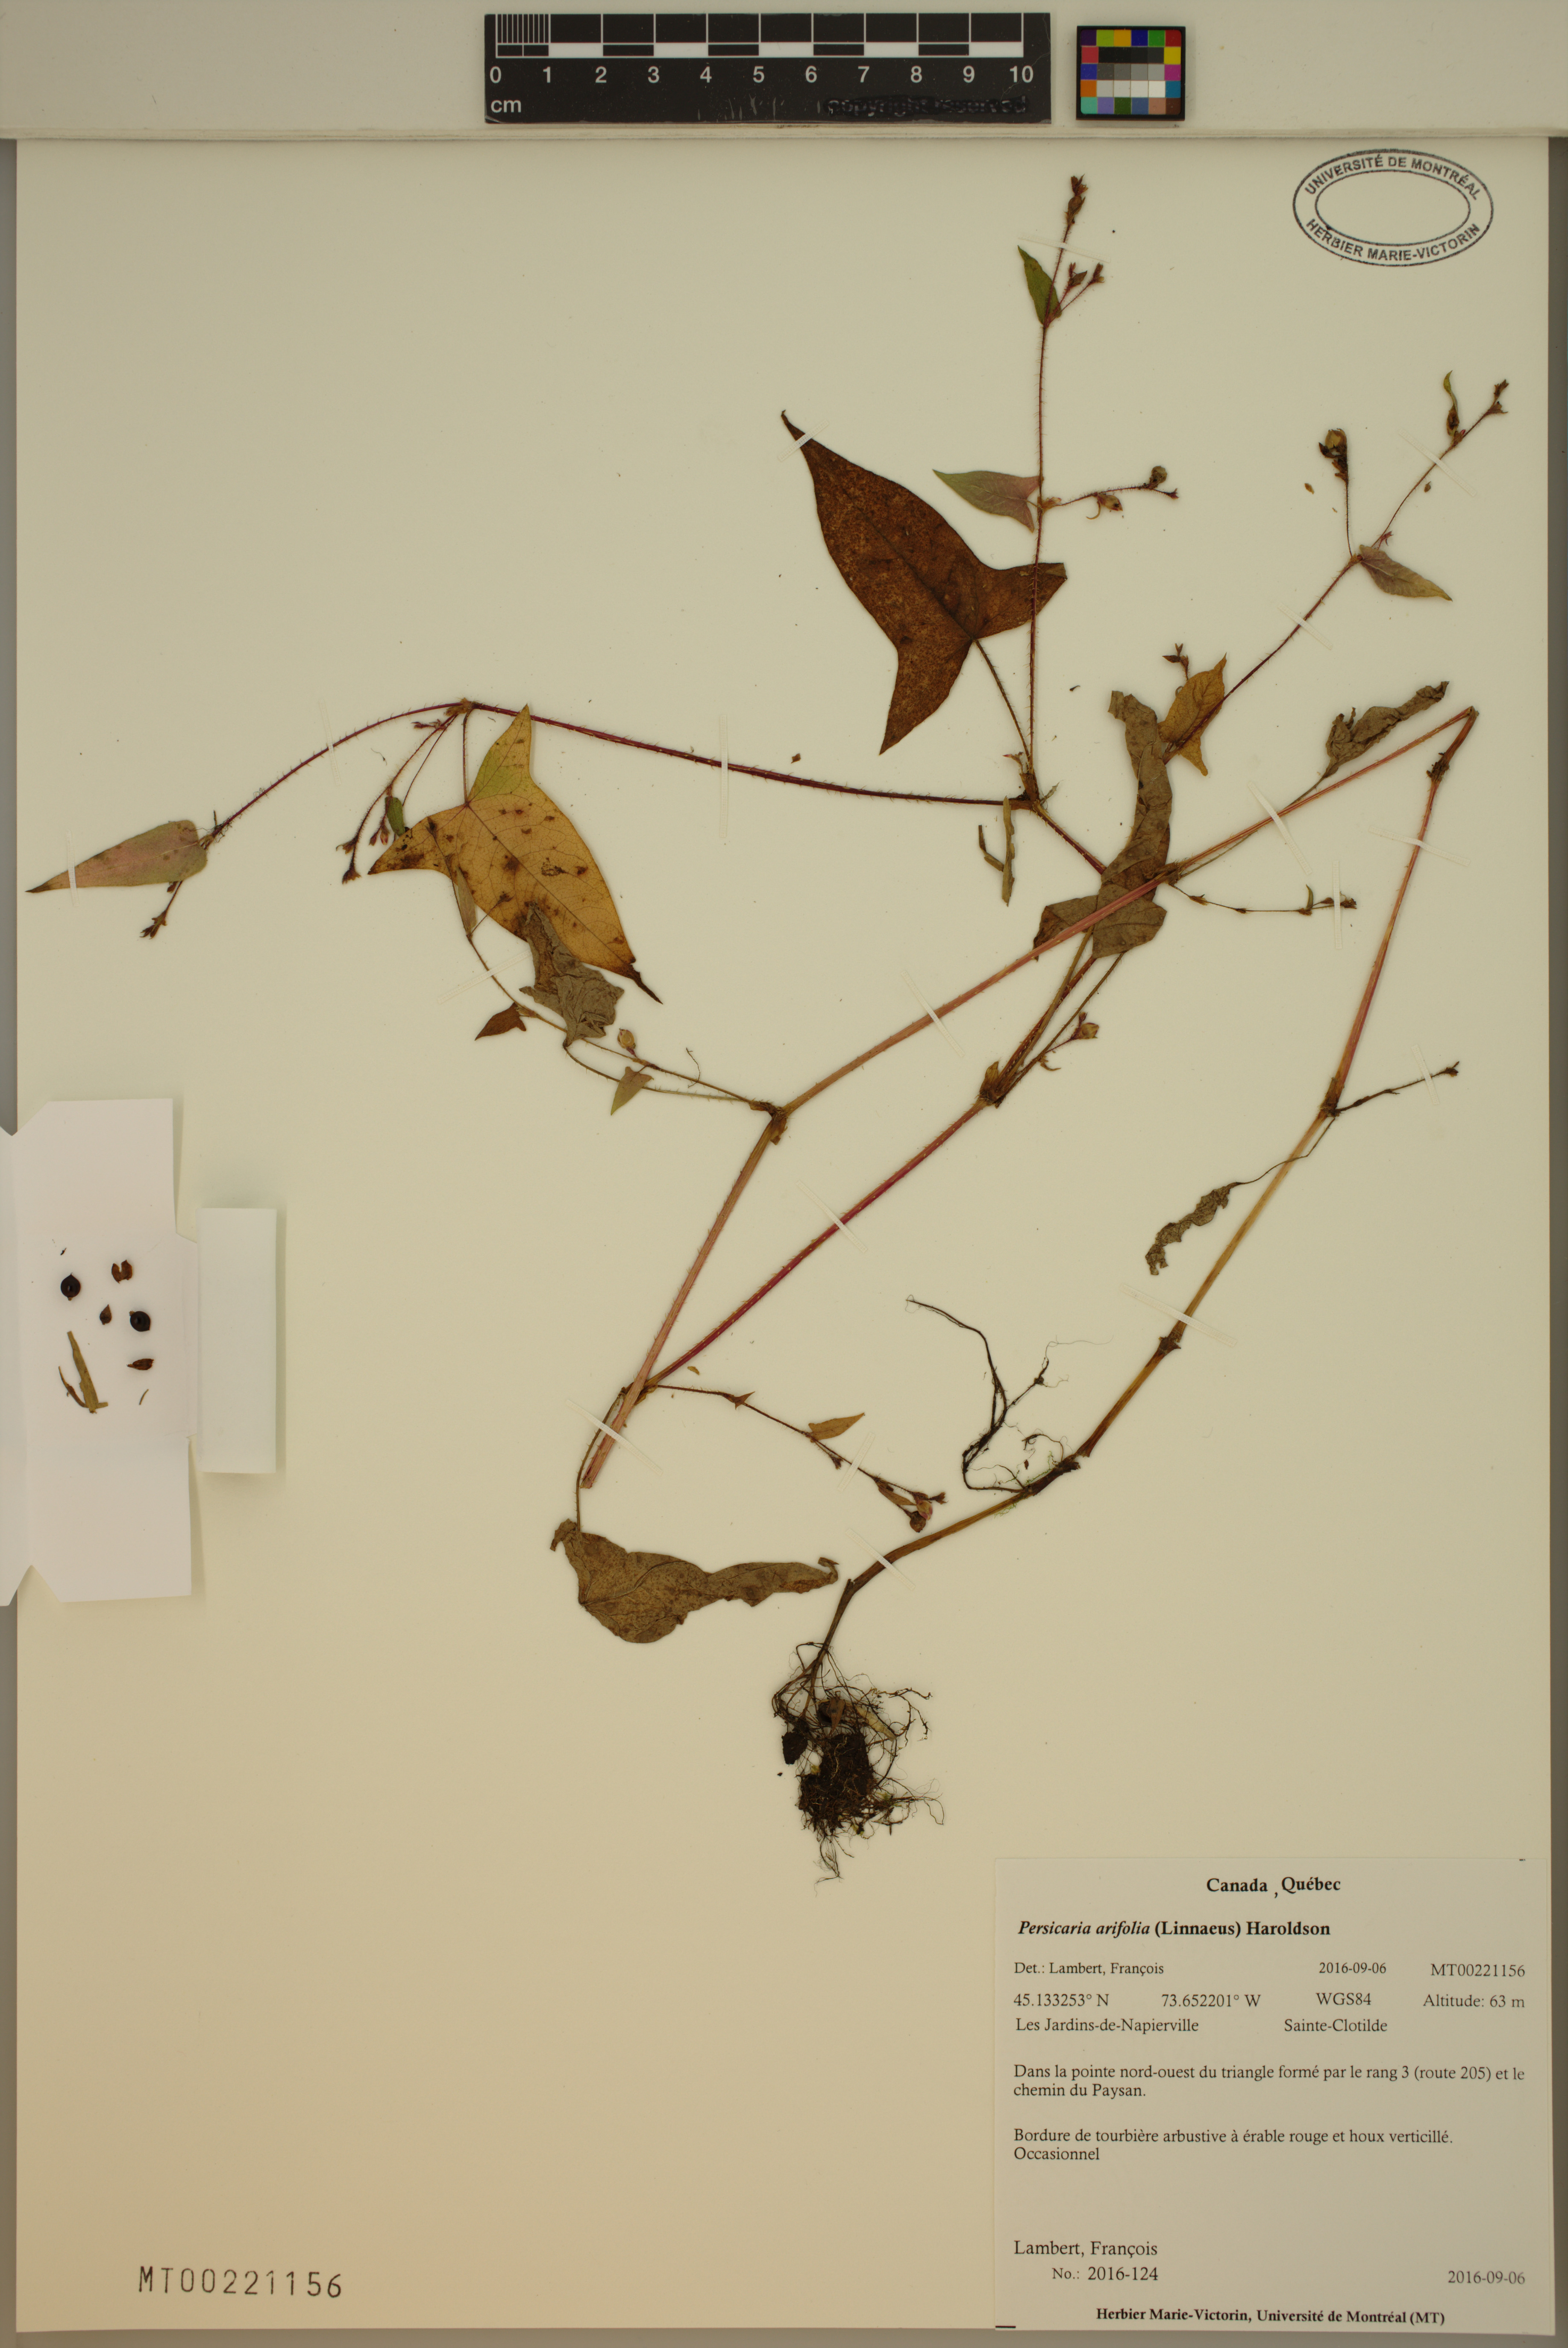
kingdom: Plantae
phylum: Tracheophyta
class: Magnoliopsida
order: Caryophyllales
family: Polygonaceae
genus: Persicaria
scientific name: Persicaria arifolia
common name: Halberd-leaved tear-thumb
